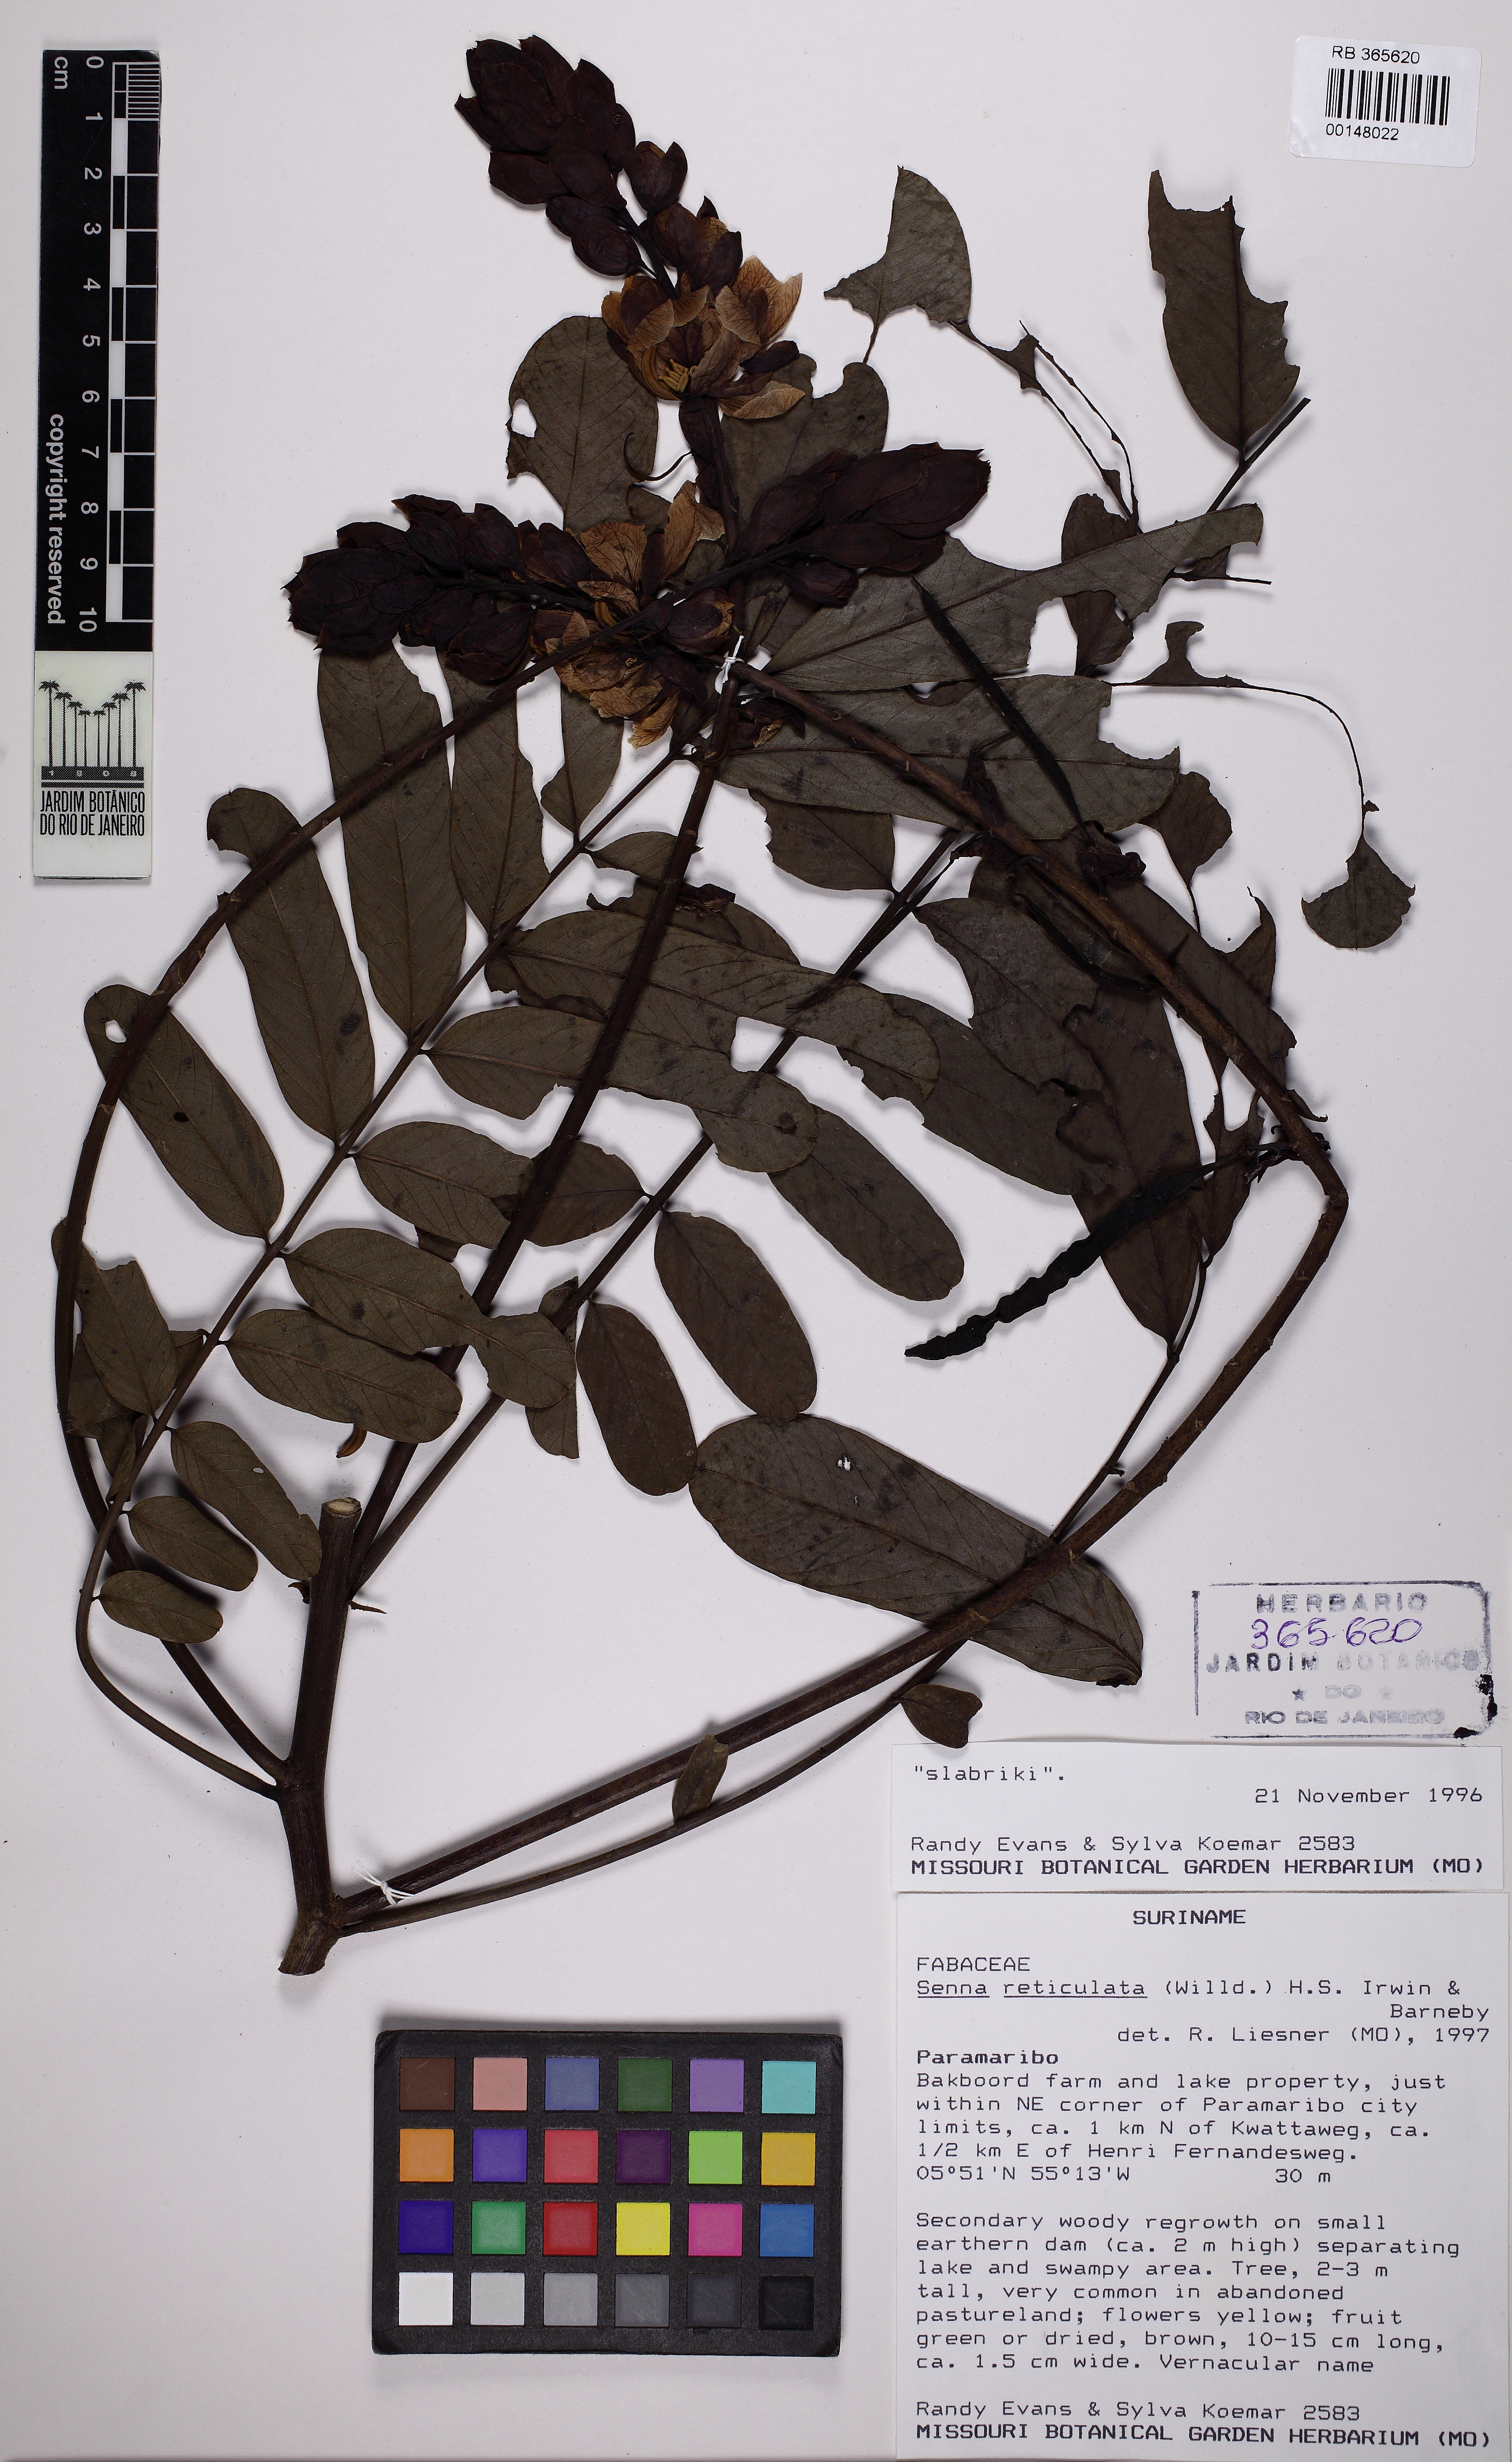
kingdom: Plantae
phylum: Tracheophyta
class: Magnoliopsida
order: Fabales
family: Fabaceae
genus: Senna
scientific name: Senna reticulata
